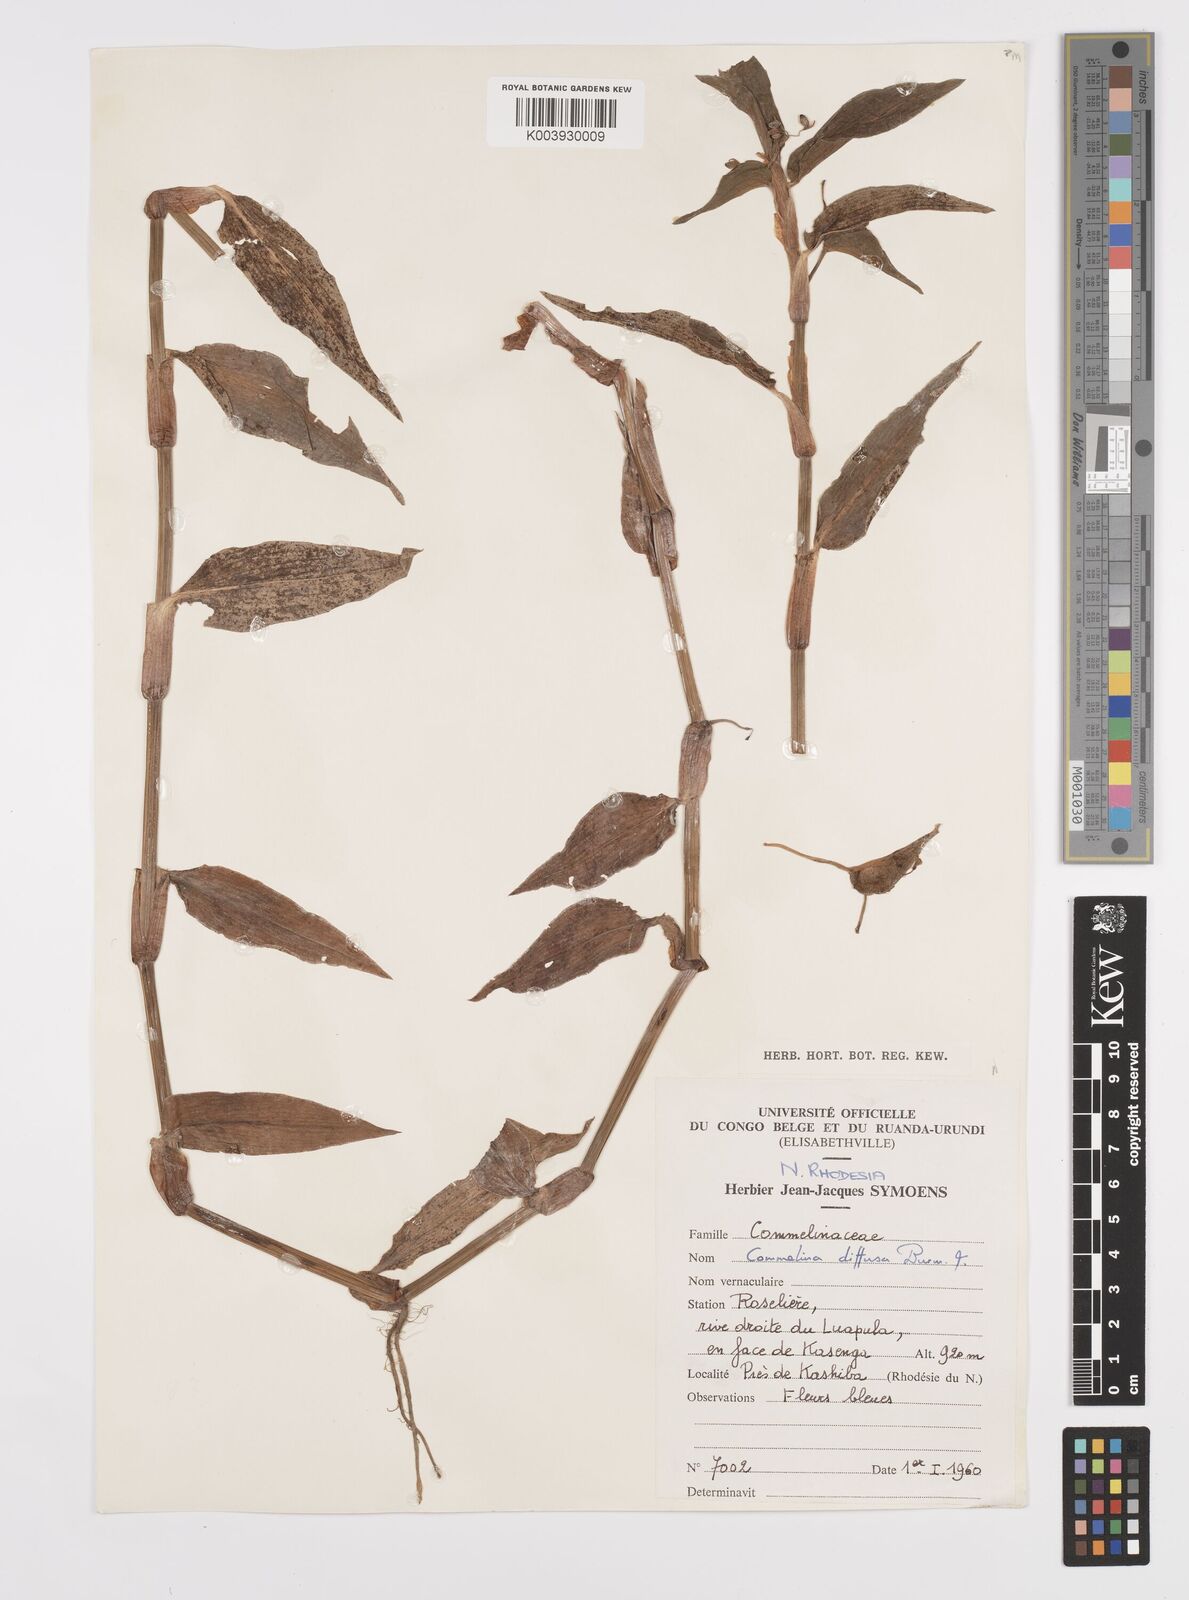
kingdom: Plantae
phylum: Tracheophyta
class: Liliopsida
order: Commelinales
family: Commelinaceae
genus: Commelina
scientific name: Commelina diffusa
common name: Climbing dayflower
